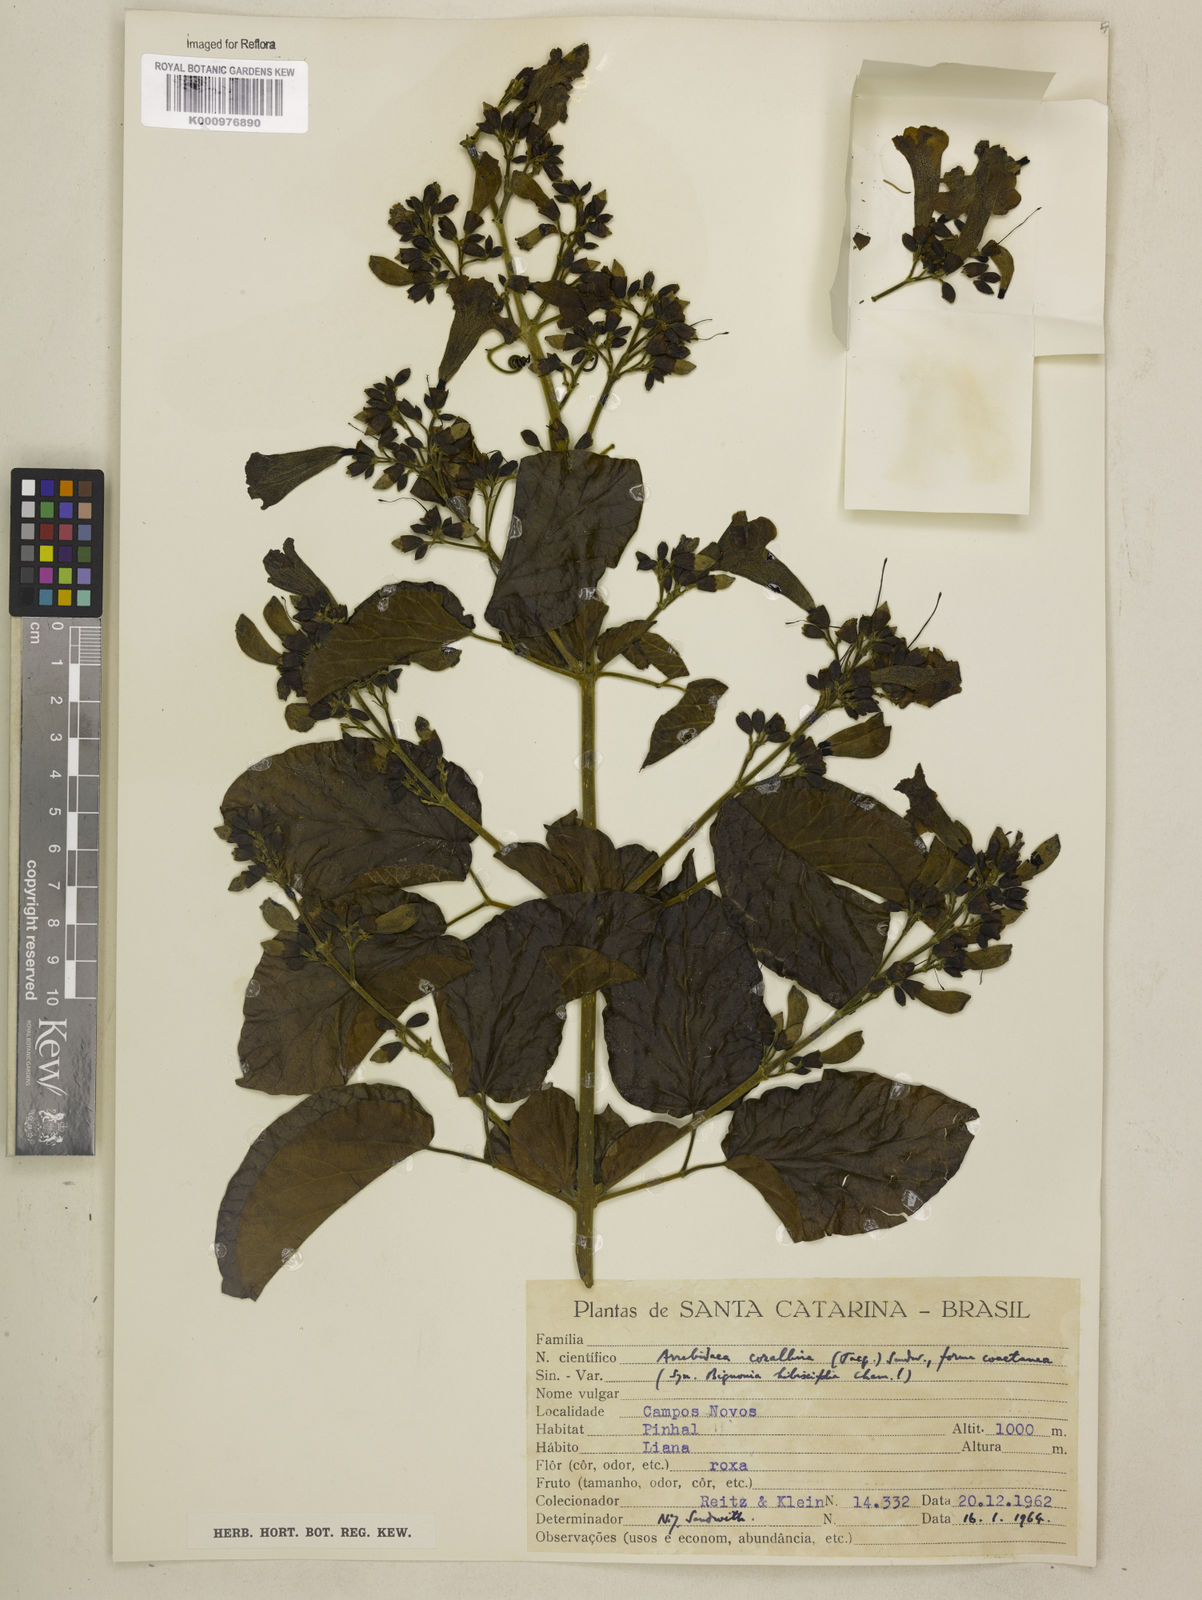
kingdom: Plantae
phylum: Tracheophyta
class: Magnoliopsida
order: Lamiales
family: Bignoniaceae
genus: Tanaecium
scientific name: Tanaecium dichotomum
